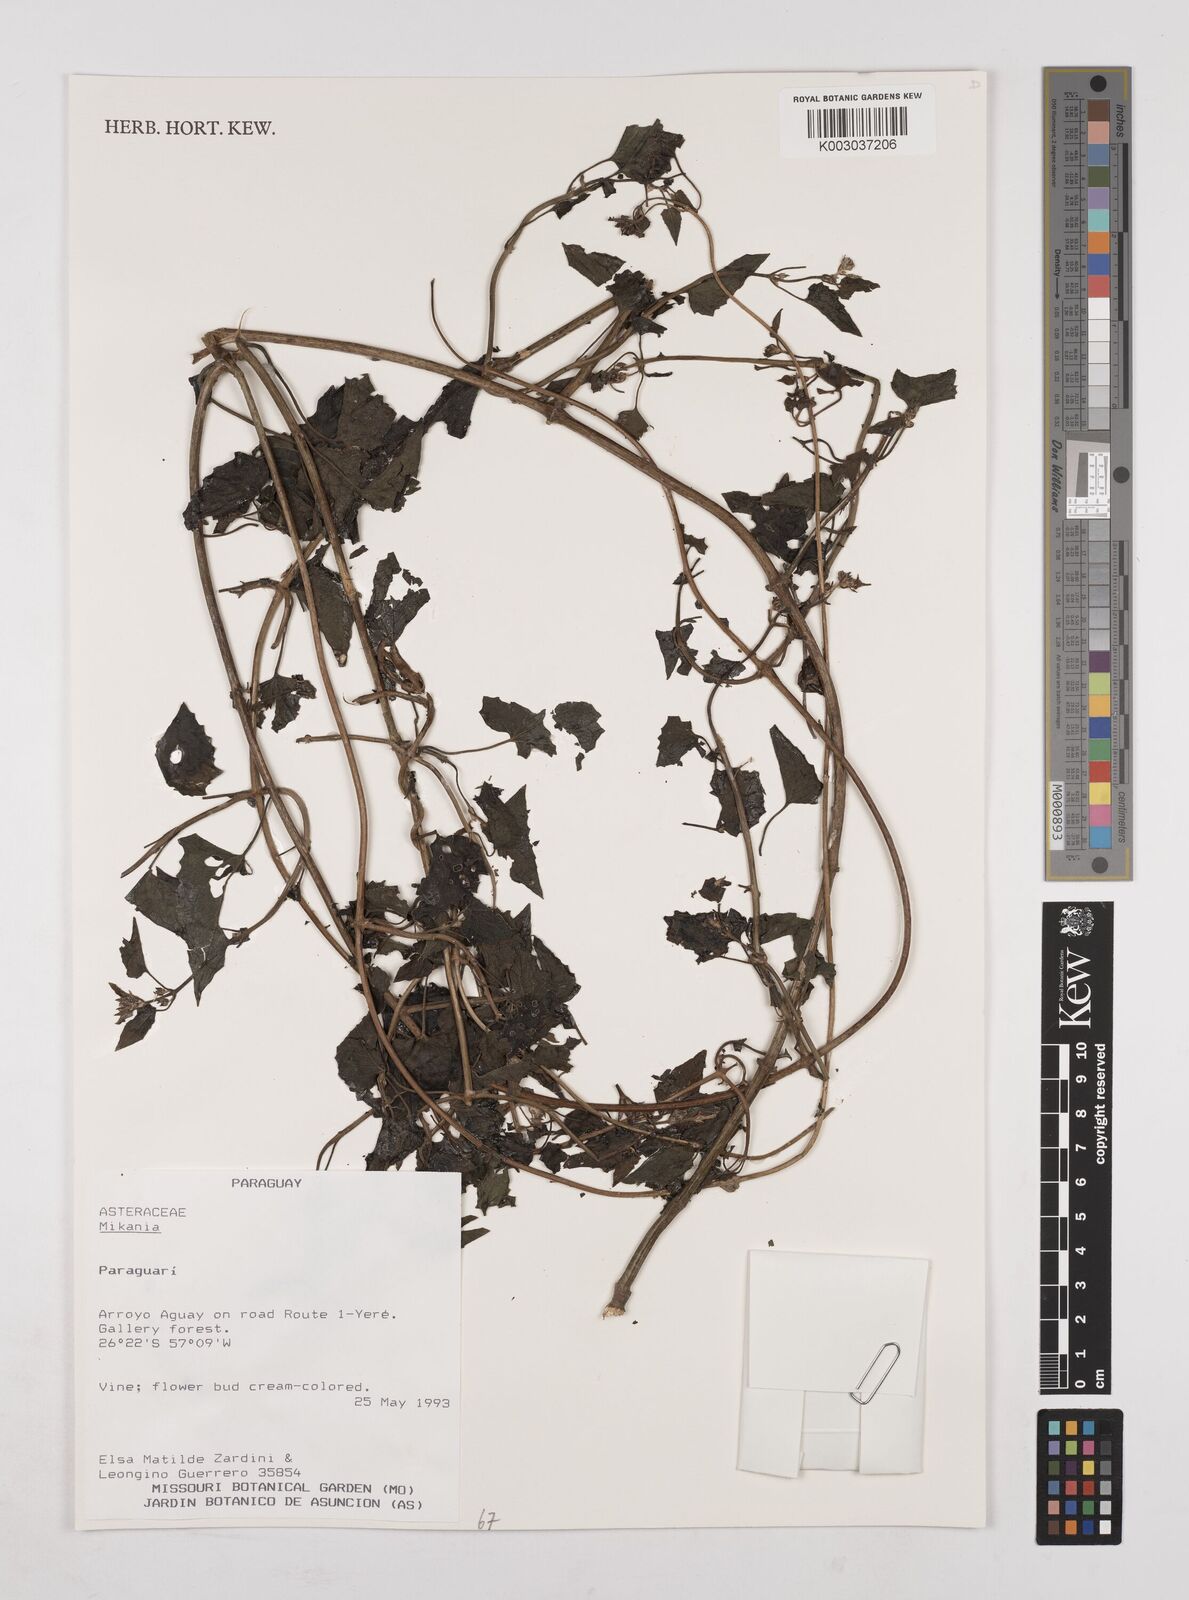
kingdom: Plantae
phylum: Tracheophyta
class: Magnoliopsida
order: Asterales
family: Asteraceae
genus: Mikania
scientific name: Mikania
